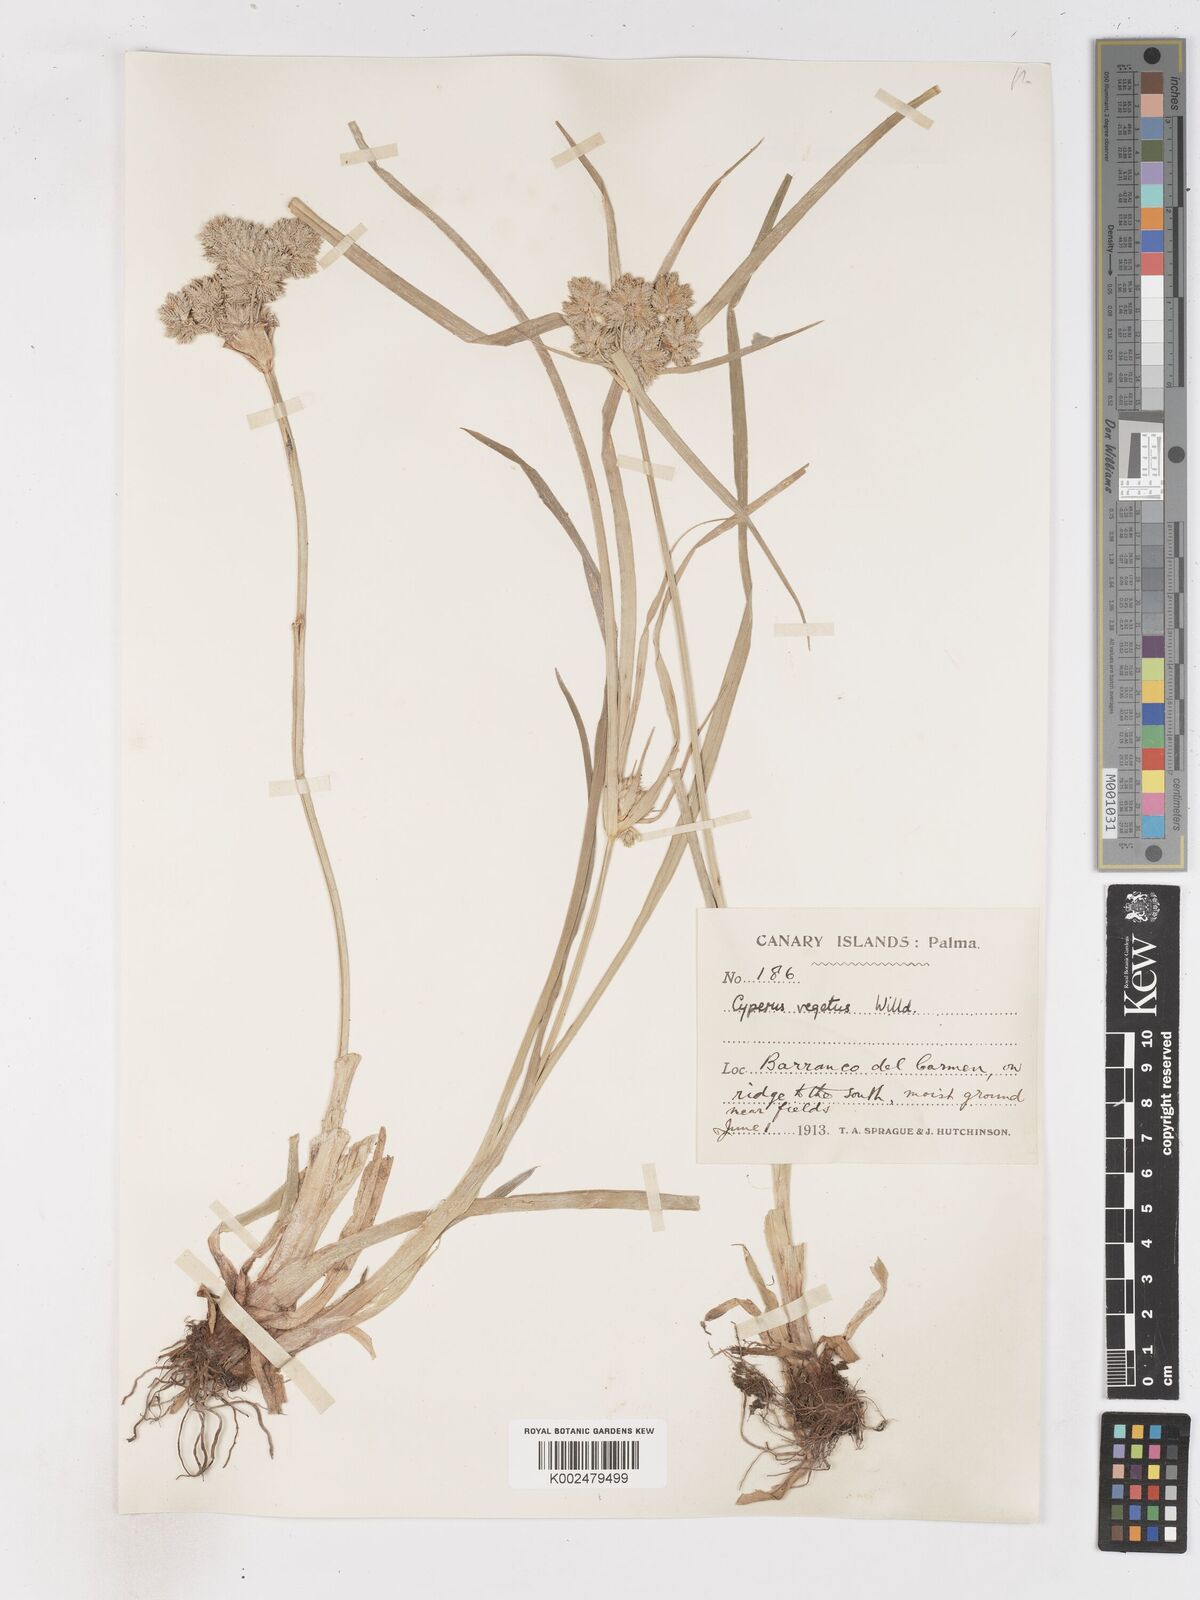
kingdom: Plantae
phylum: Tracheophyta
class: Liliopsida
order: Poales
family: Cyperaceae
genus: Cyperus
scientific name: Cyperus eragrostis
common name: Tall flatsedge
